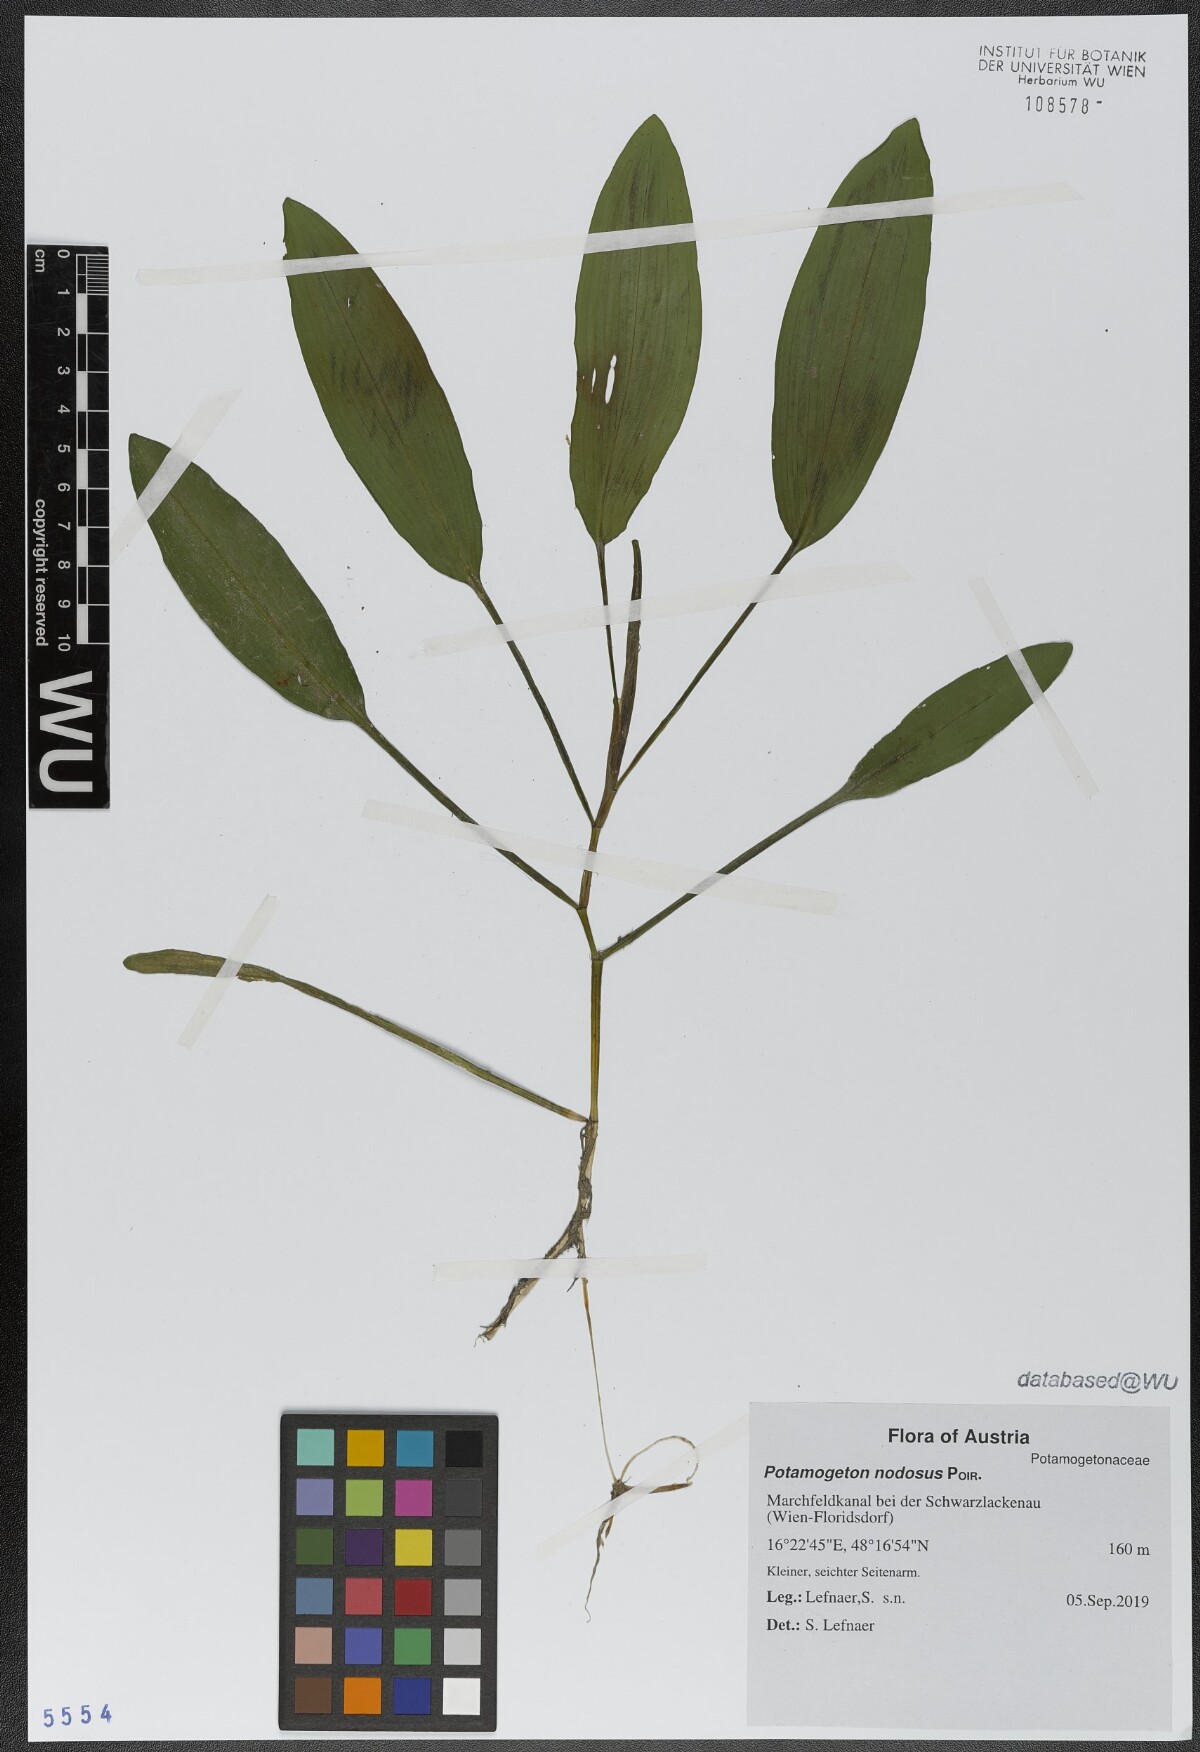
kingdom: Plantae
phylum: Tracheophyta
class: Liliopsida
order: Alismatales
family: Potamogetonaceae
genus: Potamogeton
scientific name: Potamogeton nodosus
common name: Loddon pondweed
